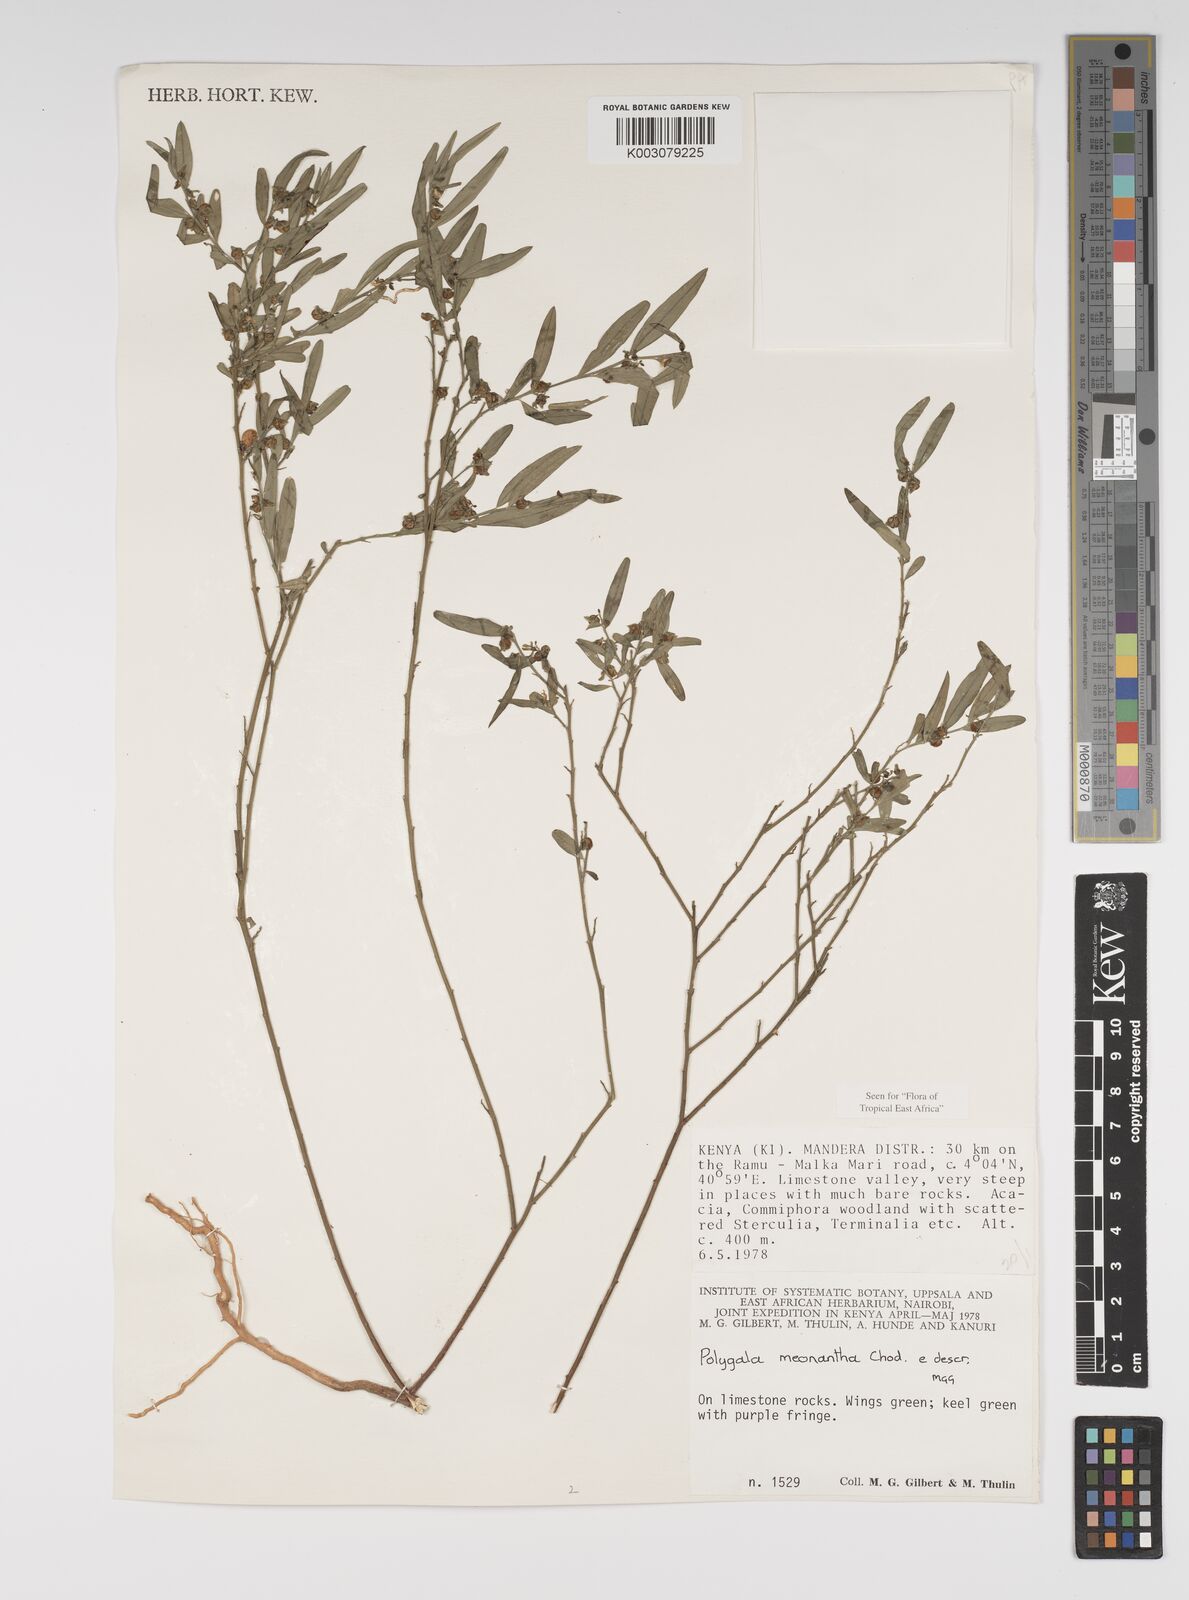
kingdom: Plantae
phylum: Tracheophyta
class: Magnoliopsida
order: Fabales
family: Polygalaceae
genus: Polygala
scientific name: Polygala meonantha
